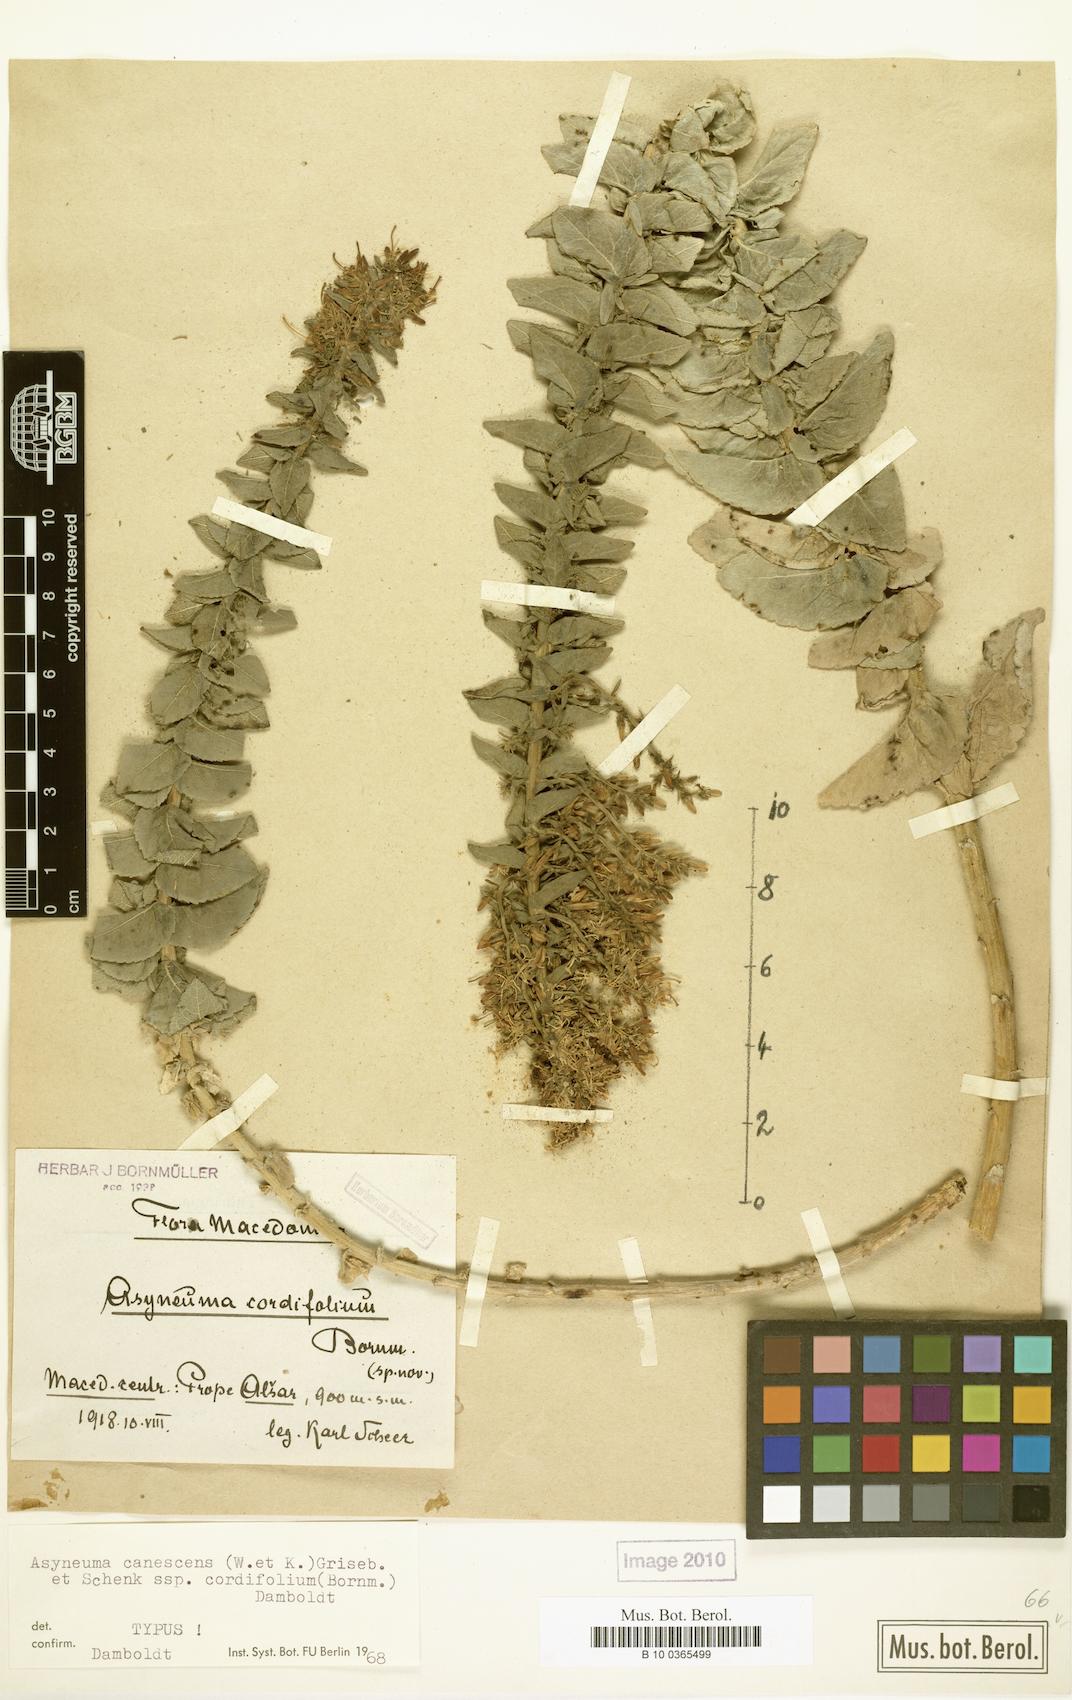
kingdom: Plantae
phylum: Tracheophyta
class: Magnoliopsida
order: Asterales
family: Campanulaceae
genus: Asyneuma
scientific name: Asyneuma canescens
